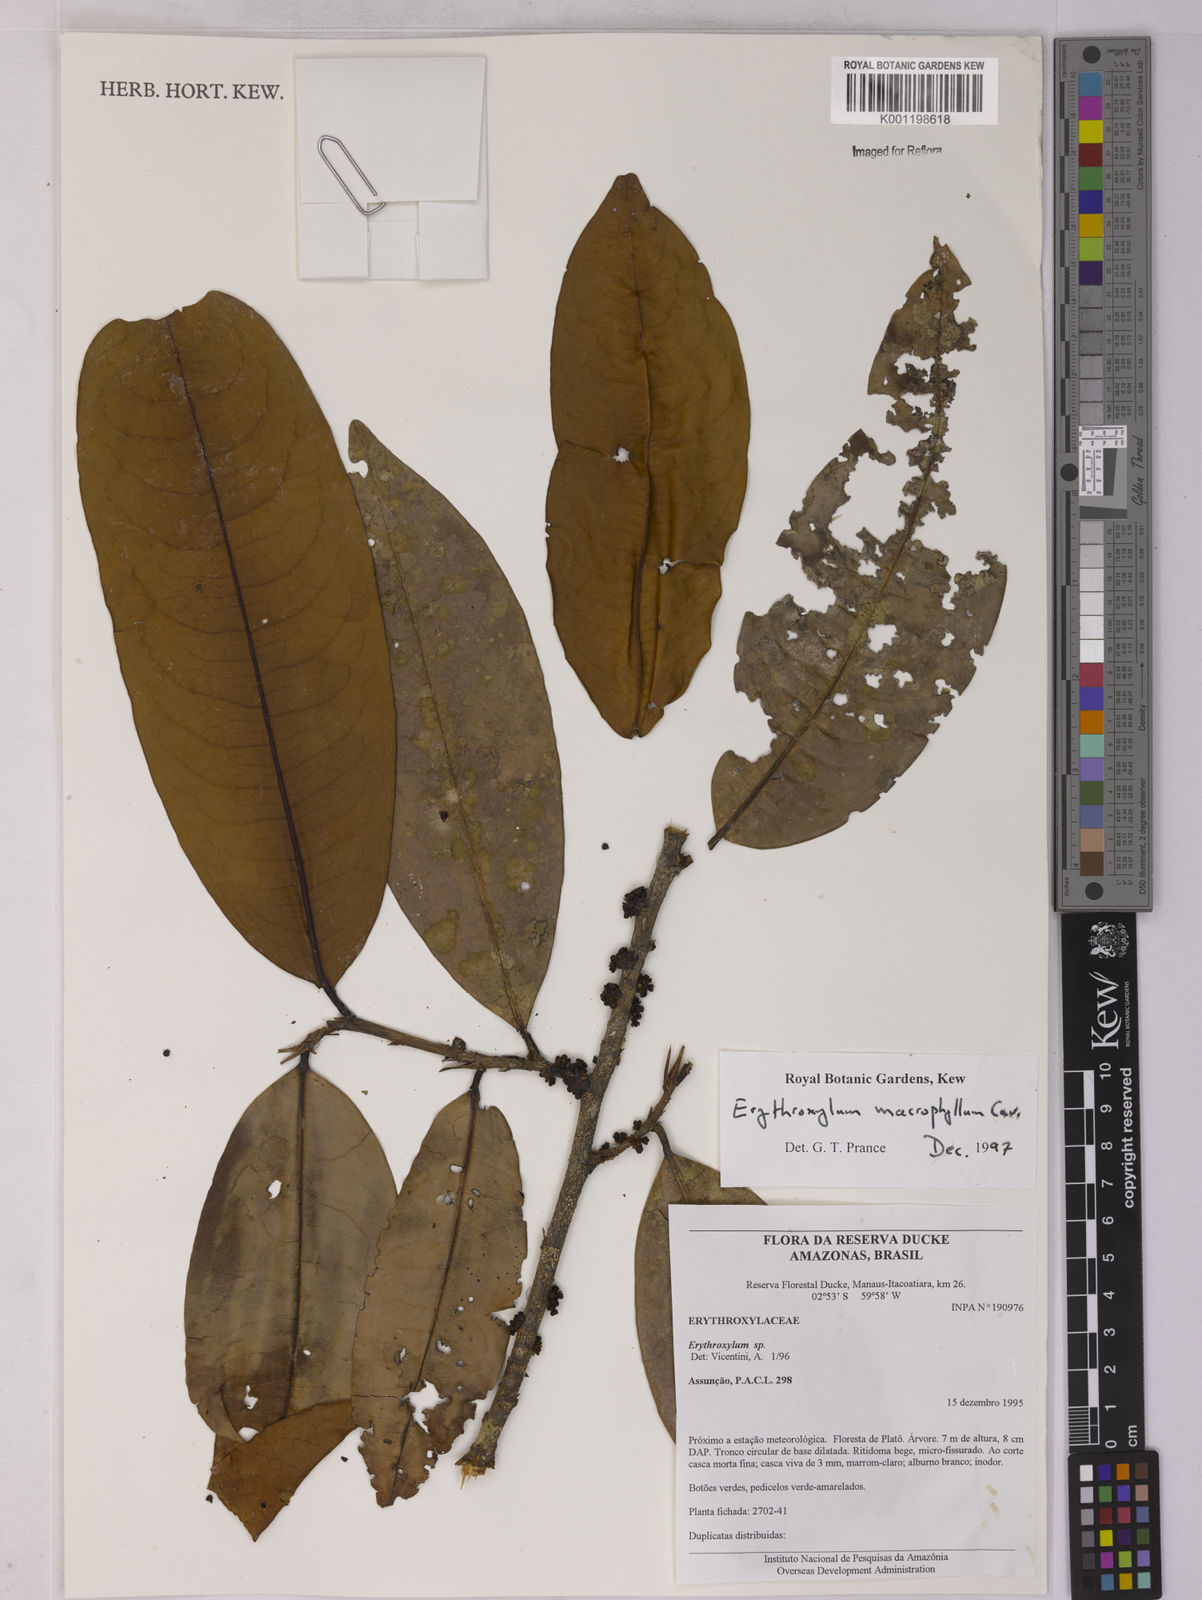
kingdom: Plantae
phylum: Tracheophyta
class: Magnoliopsida
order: Malpighiales
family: Erythroxylaceae
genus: Erythroxylum
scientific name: Erythroxylum macrophyllum
